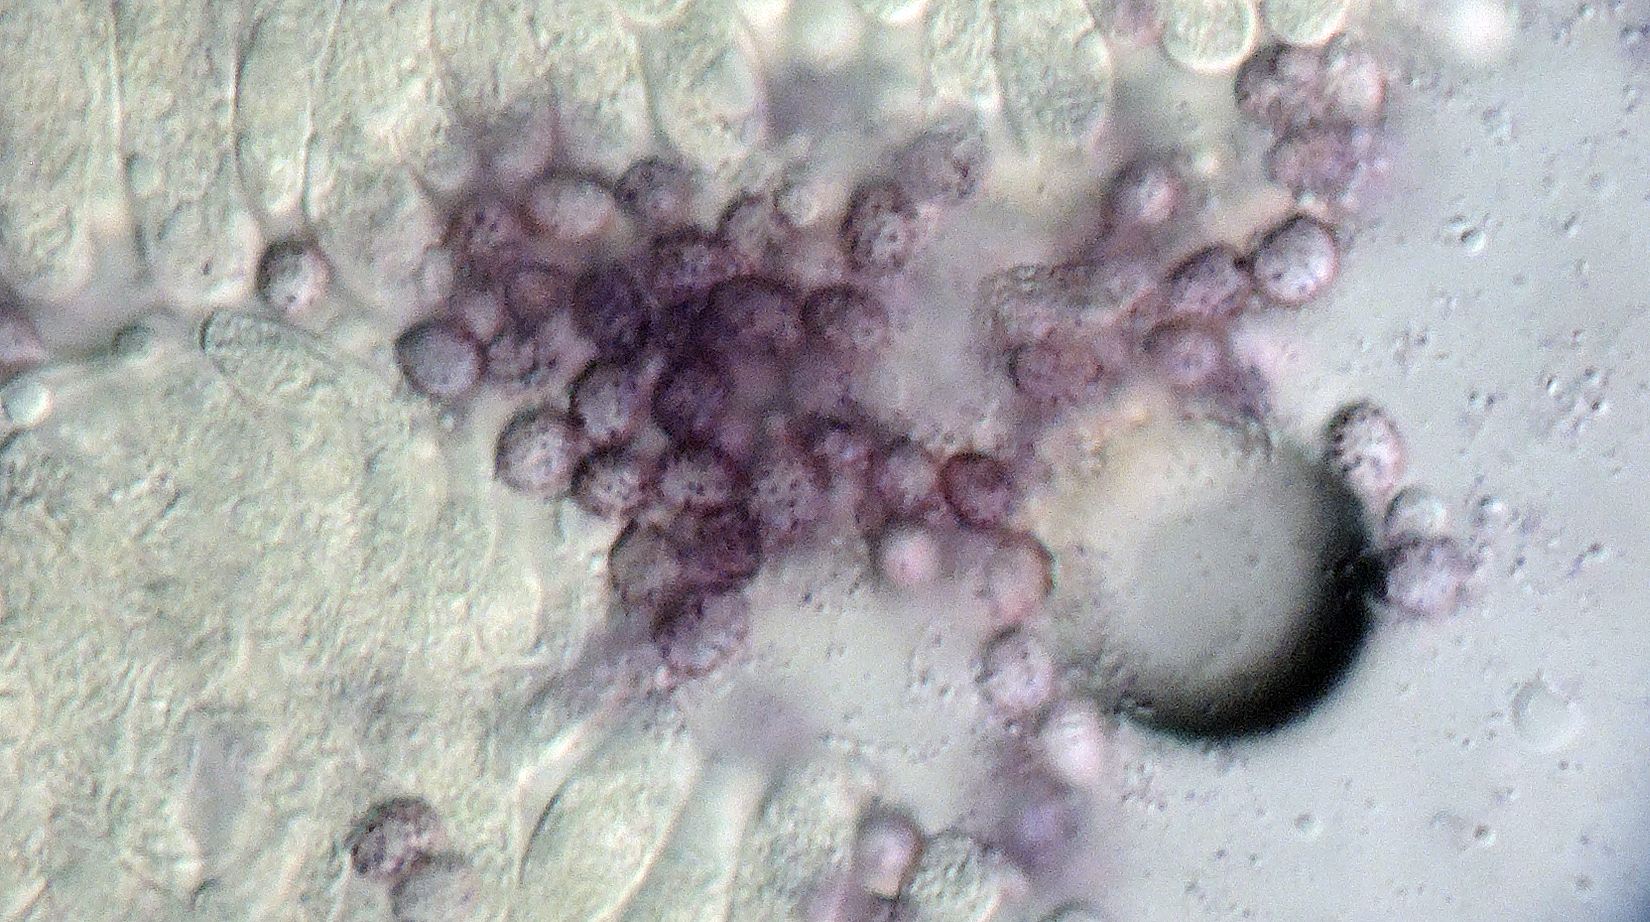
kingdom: Fungi
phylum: Basidiomycota
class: Agaricomycetes
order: Agaricales
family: Tricholomataceae
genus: Melanoleuca
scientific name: Melanoleuca fontenlae
